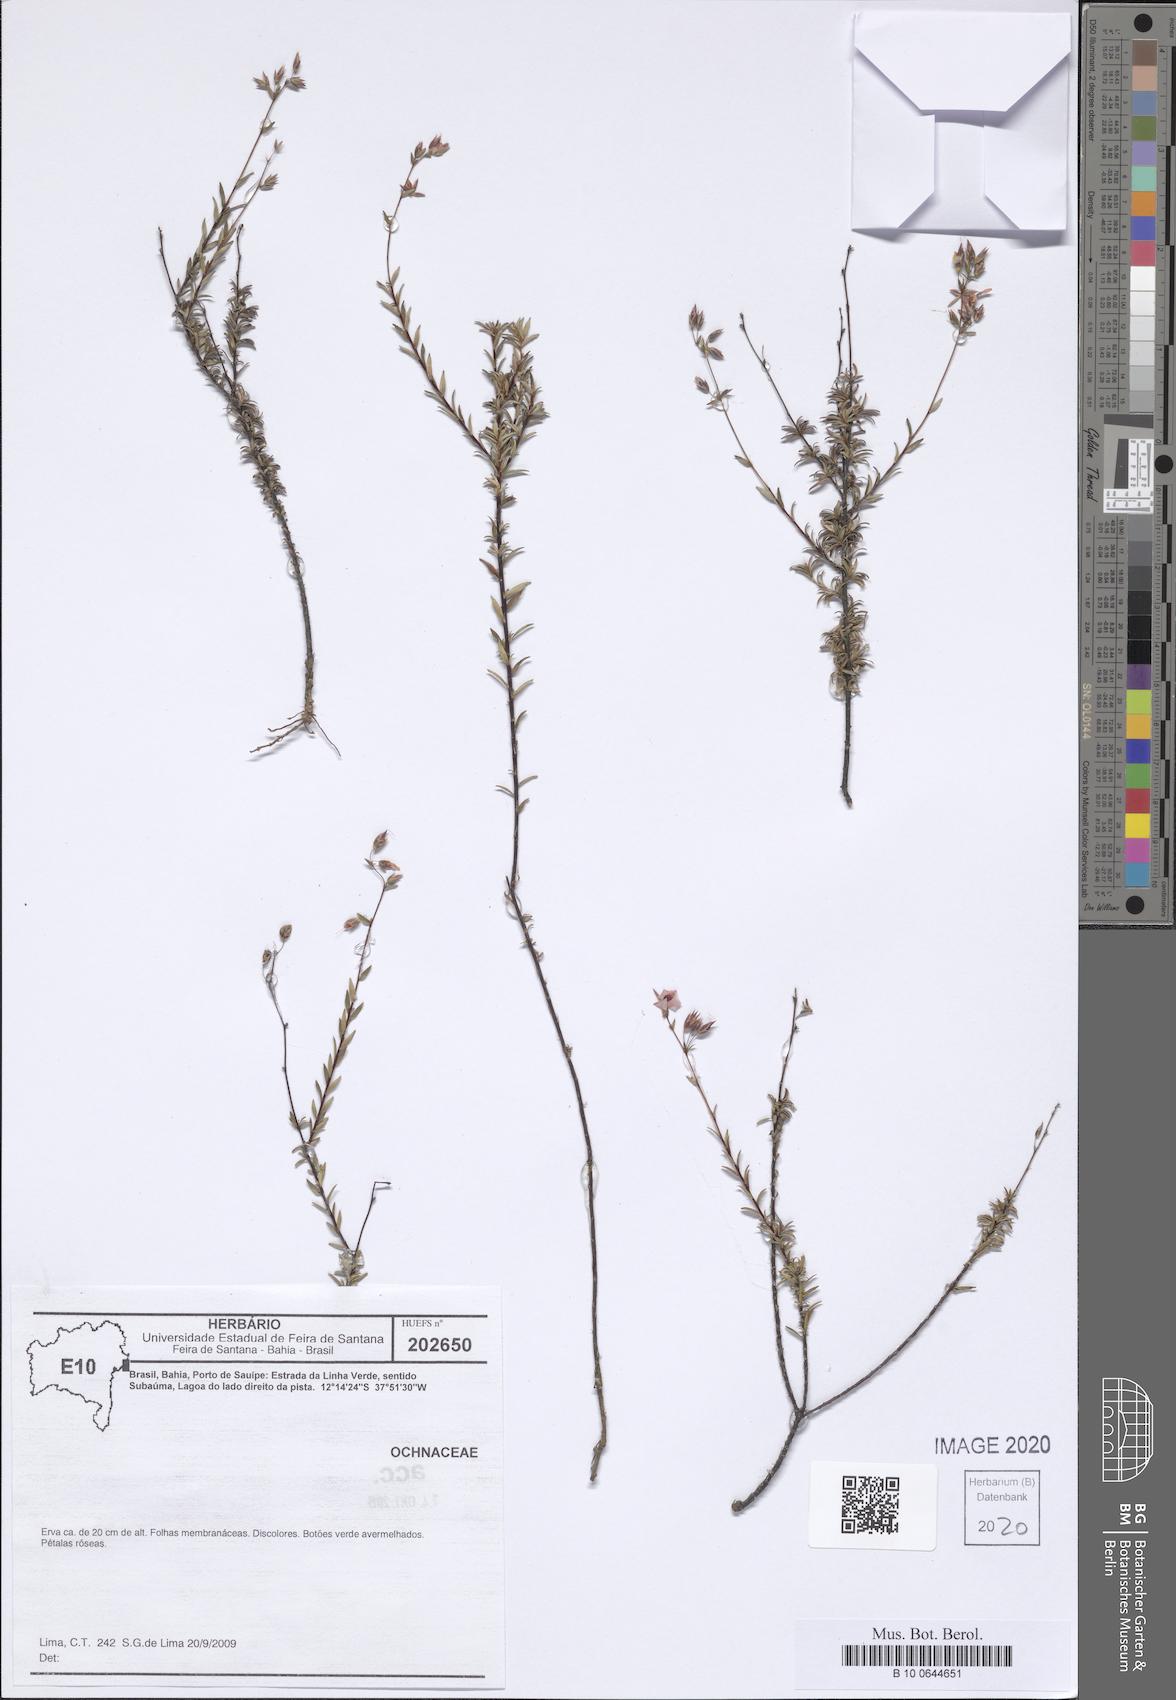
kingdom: Plantae
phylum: Tracheophyta
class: Magnoliopsida
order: Malpighiales
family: Ochnaceae
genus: Sauvagesia
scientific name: Sauvagesia sprengelii
